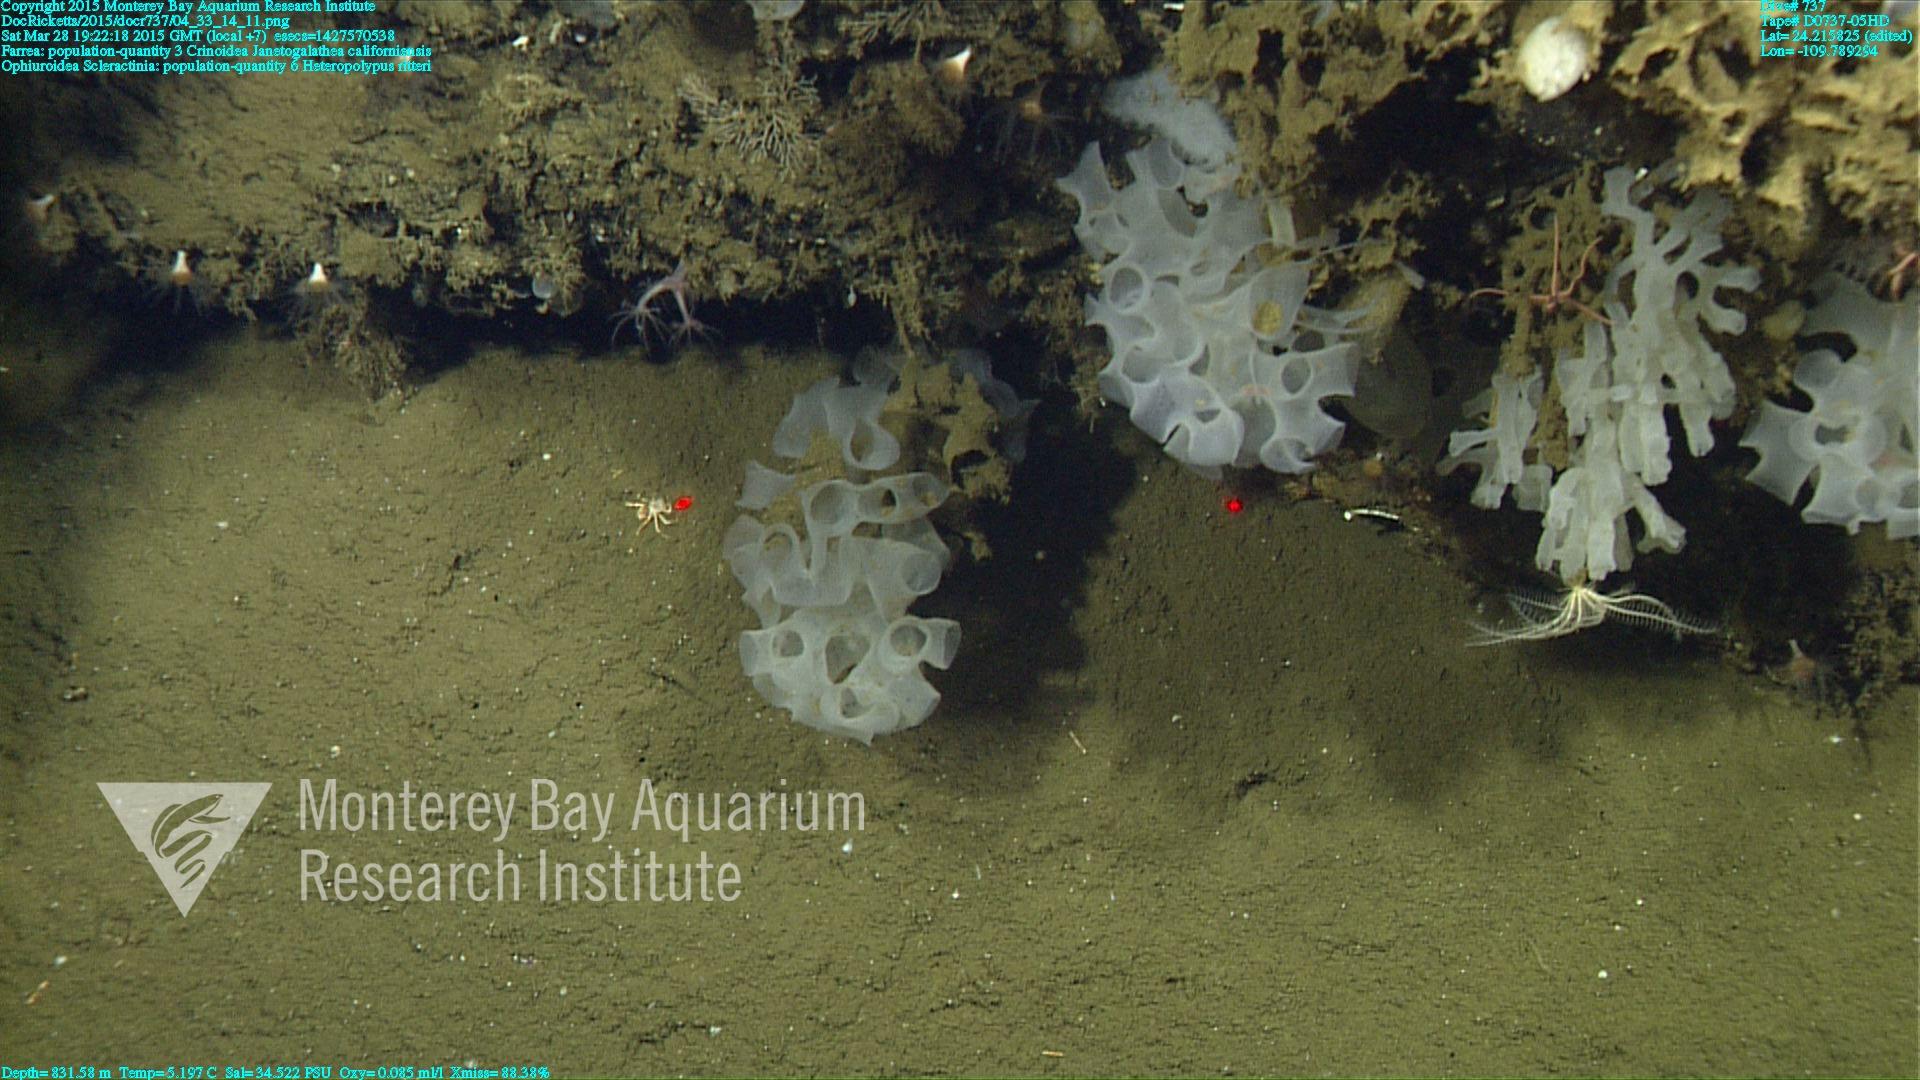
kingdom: Animalia
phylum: Cnidaria
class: Anthozoa
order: Scleralcyonacea
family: Coralliidae
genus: Heteropolypus
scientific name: Heteropolypus ritteri
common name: Ritter's soft coral
